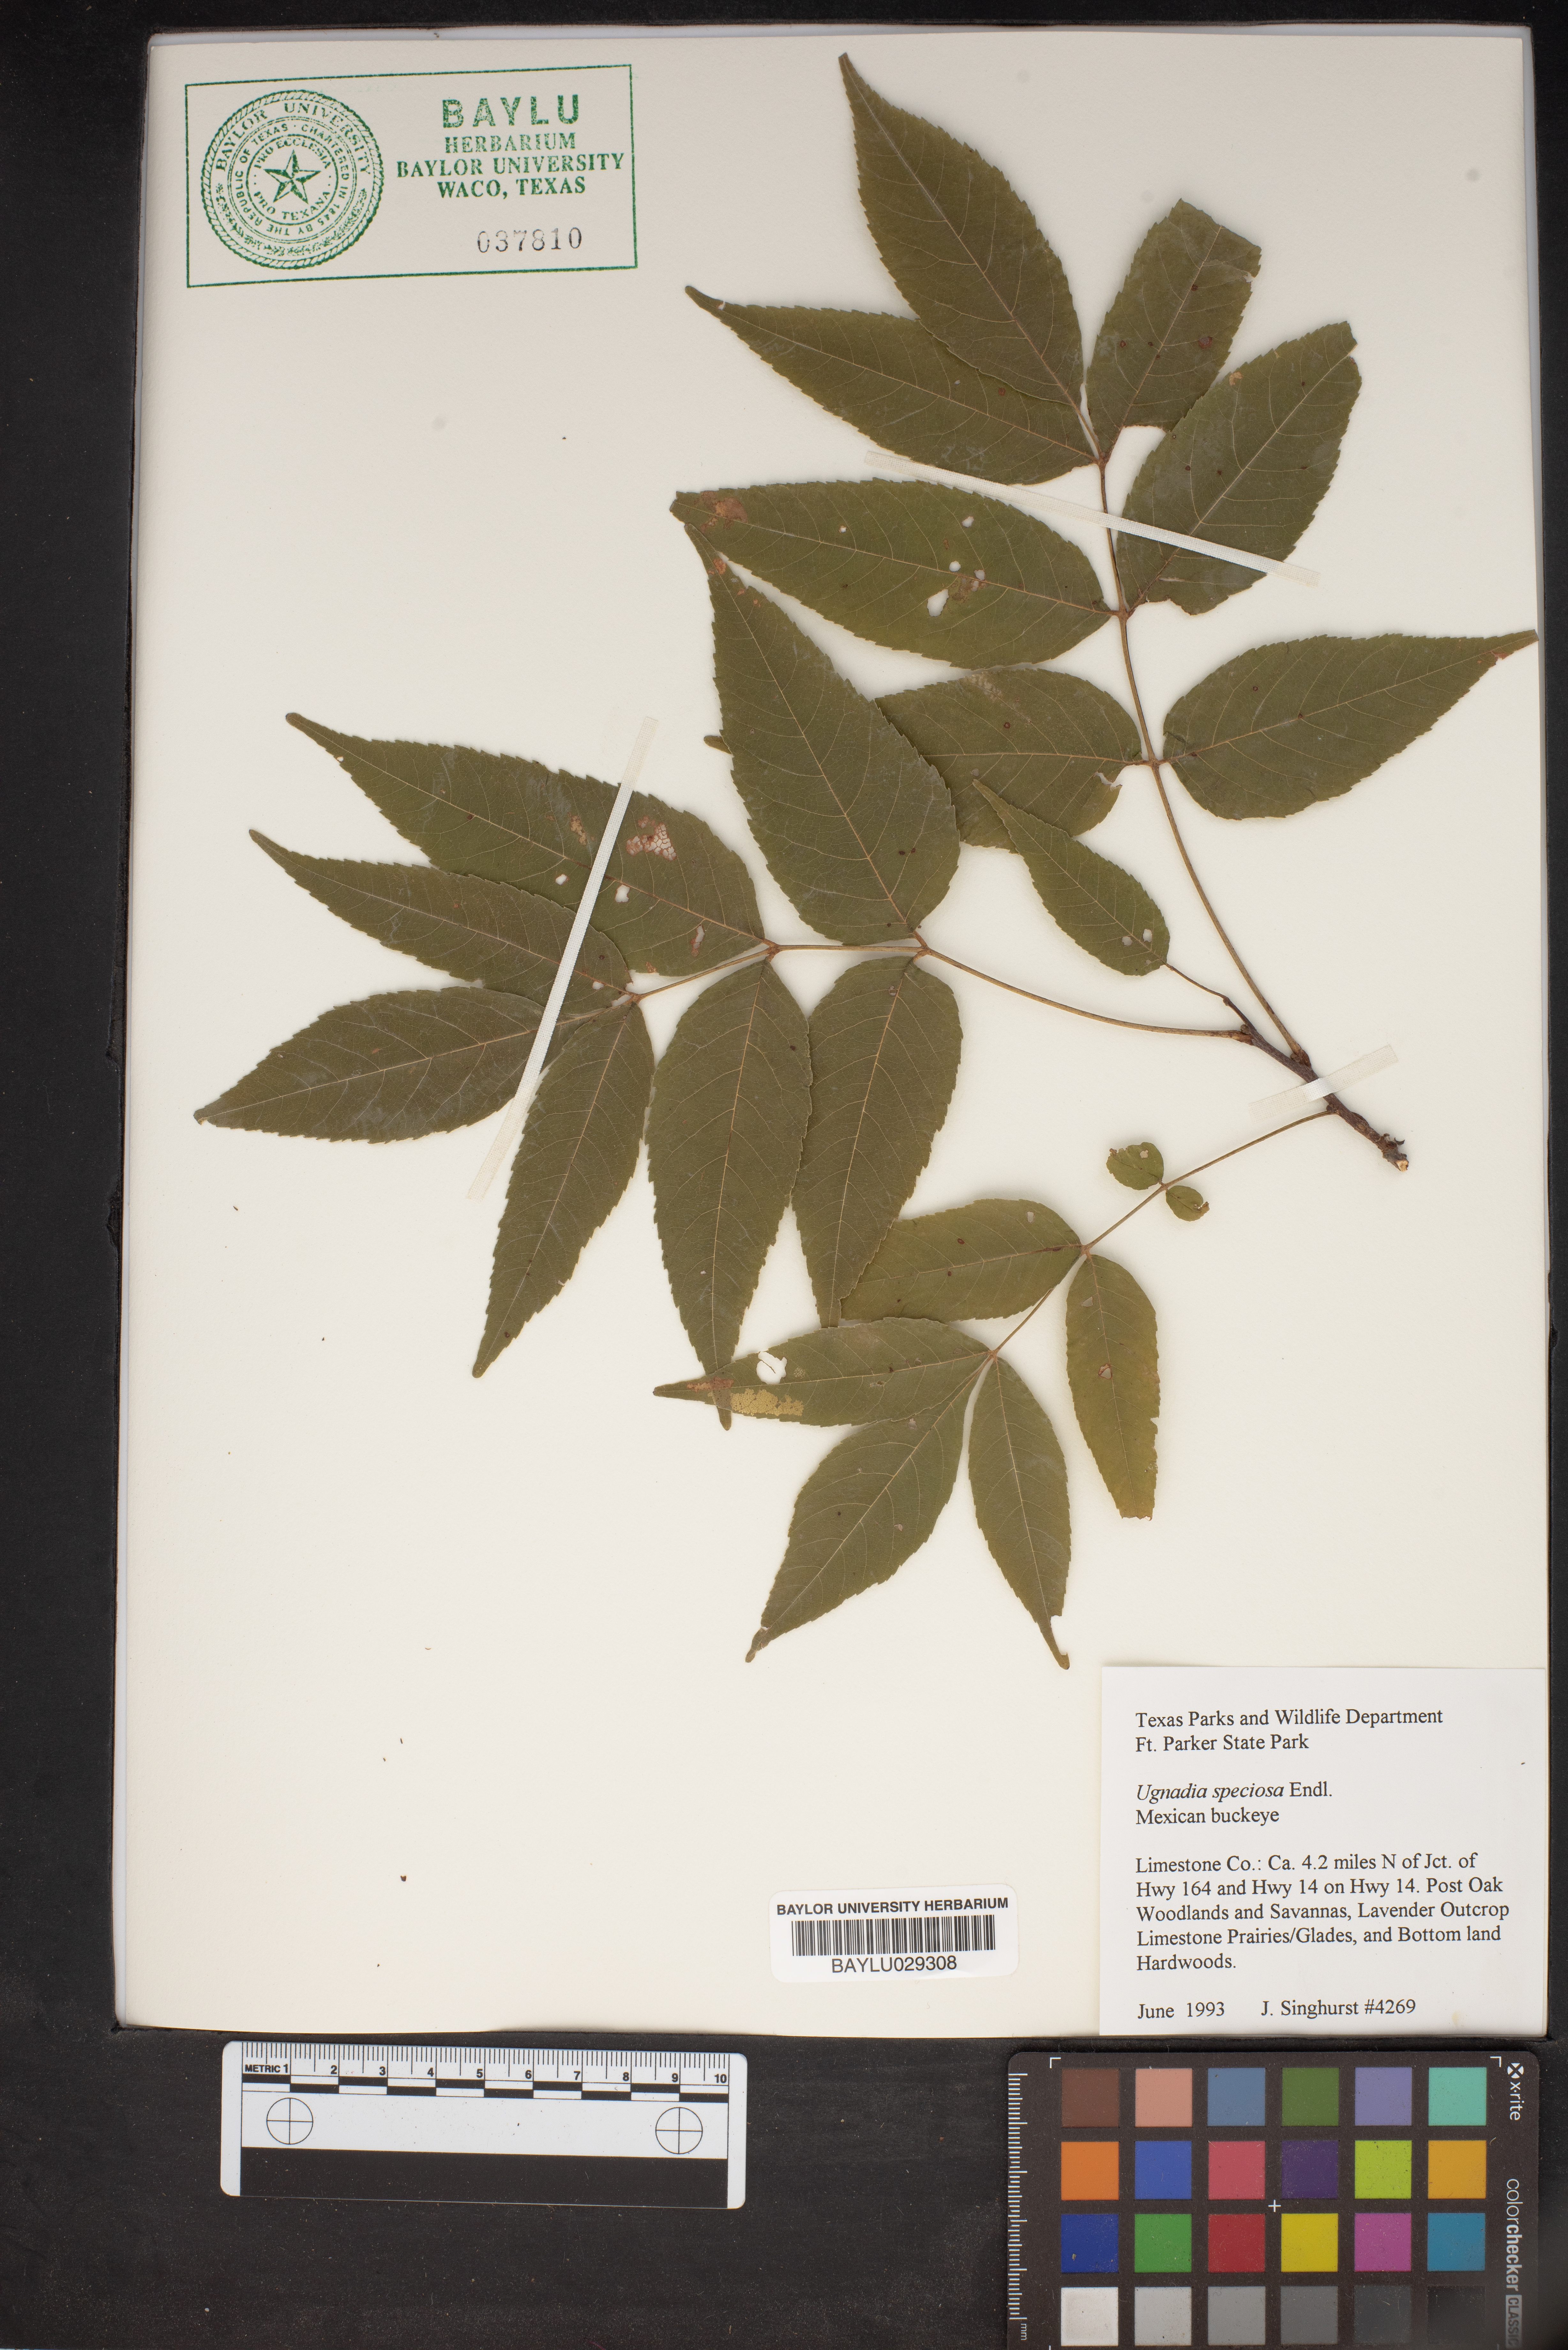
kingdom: Plantae
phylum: Tracheophyta
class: Magnoliopsida
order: Sapindales
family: Sapindaceae
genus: Ungnadia
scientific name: Ungnadia speciosa
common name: Texas-buckeye
